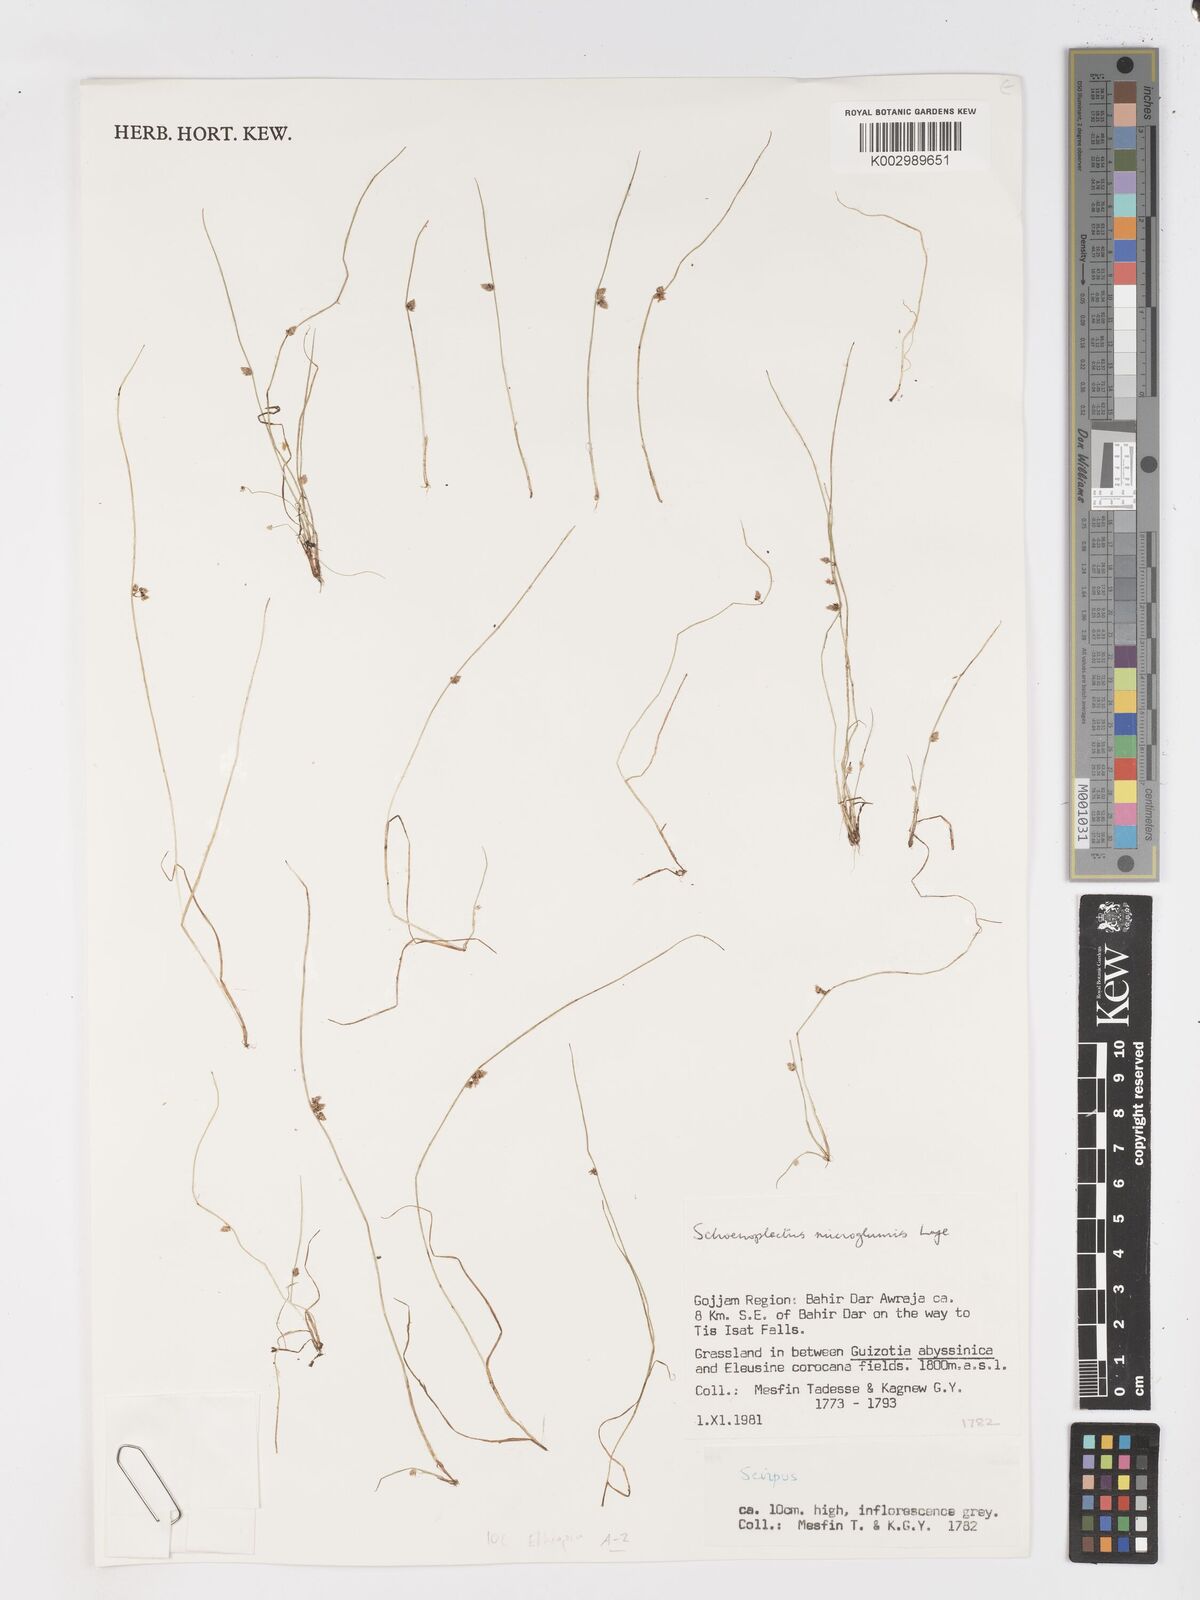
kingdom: Plantae
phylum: Tracheophyta
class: Liliopsida
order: Poales
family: Cyperaceae
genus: Schoenoplectiella
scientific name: Schoenoplectiella microglumis
